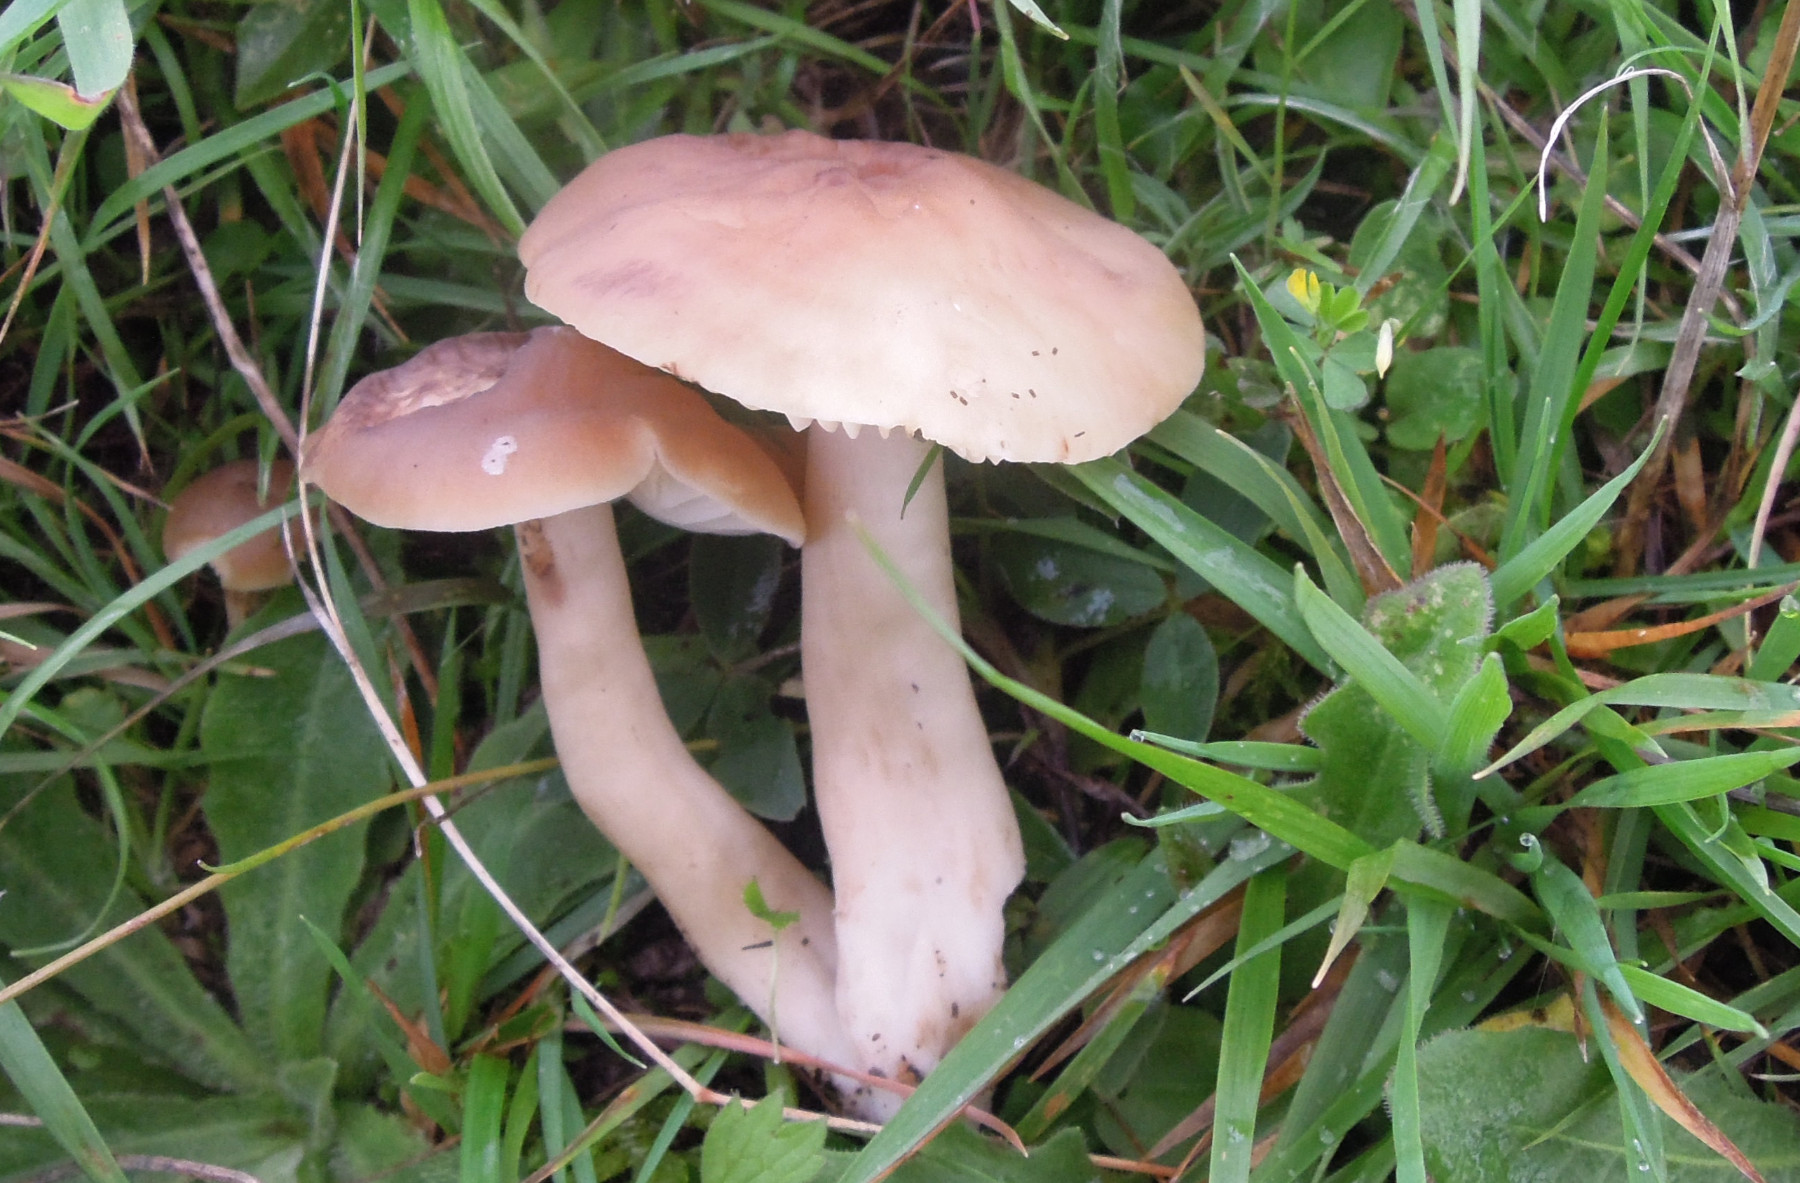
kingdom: Fungi
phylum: Basidiomycota
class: Agaricomycetes
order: Agaricales
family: Hygrophoraceae
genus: Hygrocybe
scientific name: Hygrocybe ingrata
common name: Jensens vokshat
